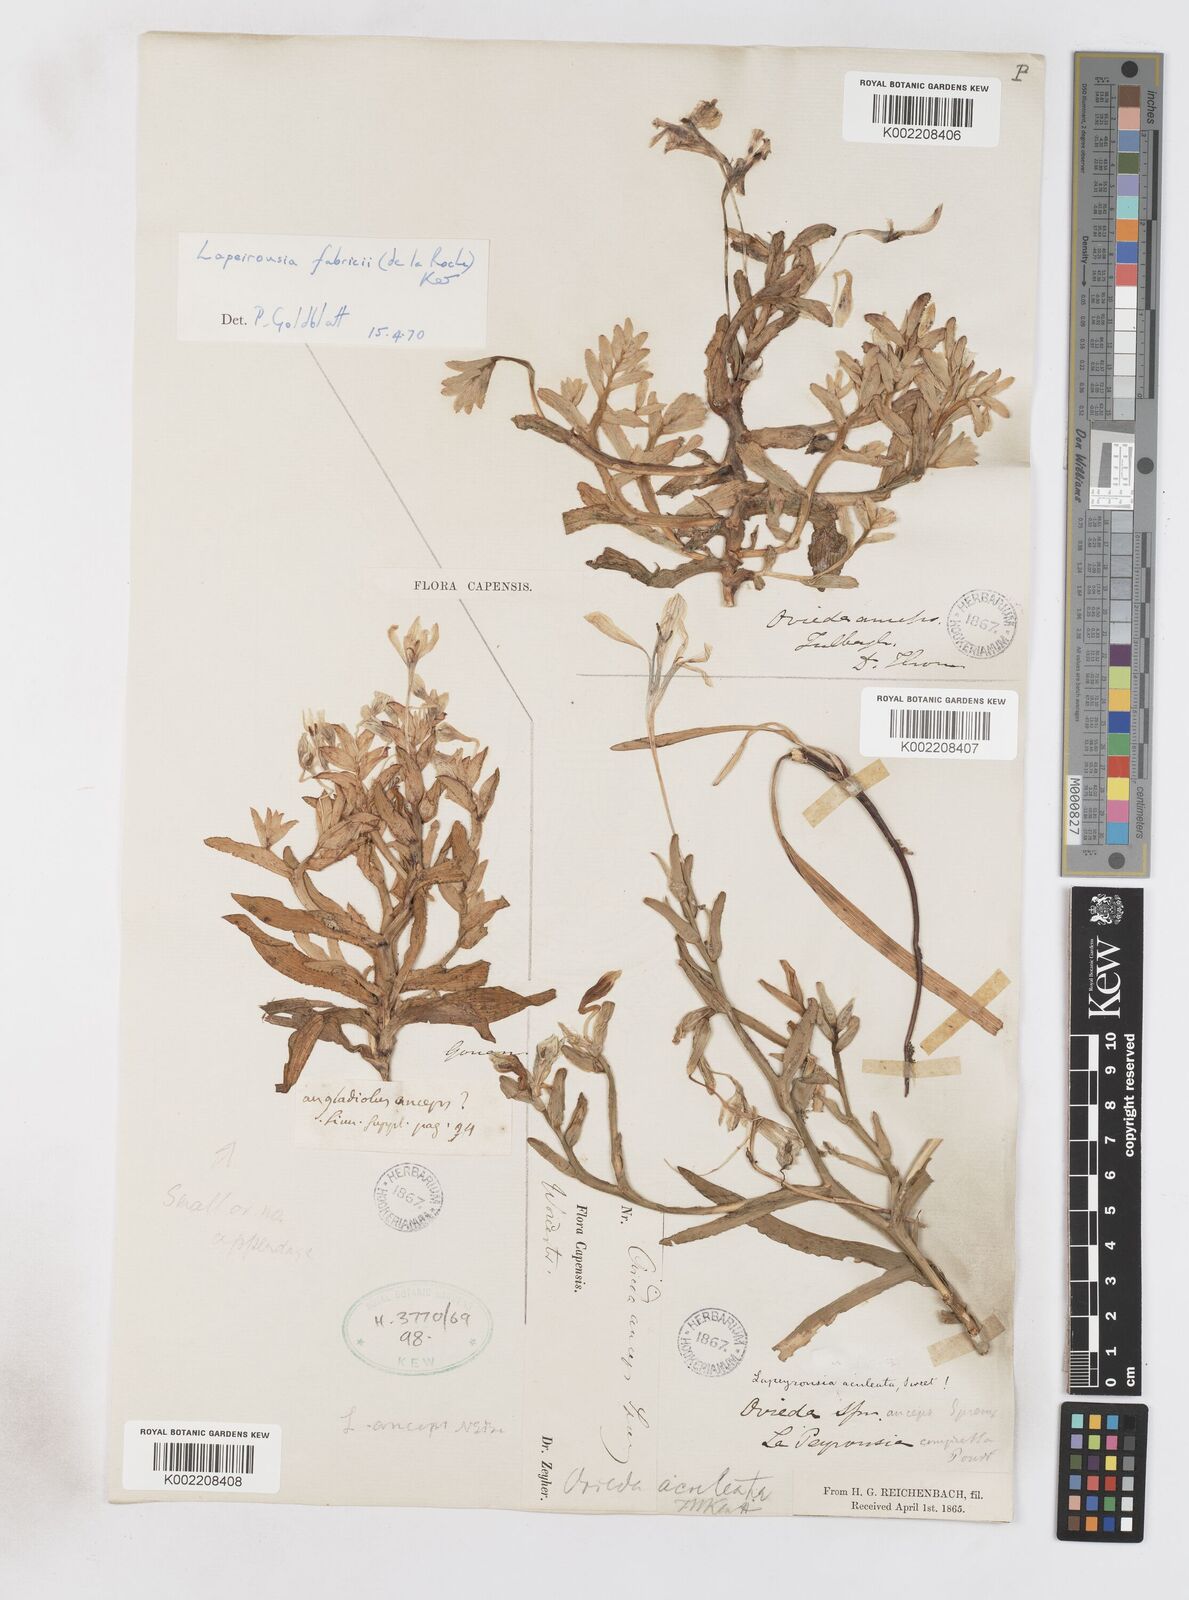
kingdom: Plantae
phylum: Tracheophyta
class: Liliopsida
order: Asparagales
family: Iridaceae
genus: Lapeirousia
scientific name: Lapeirousia fabricii
